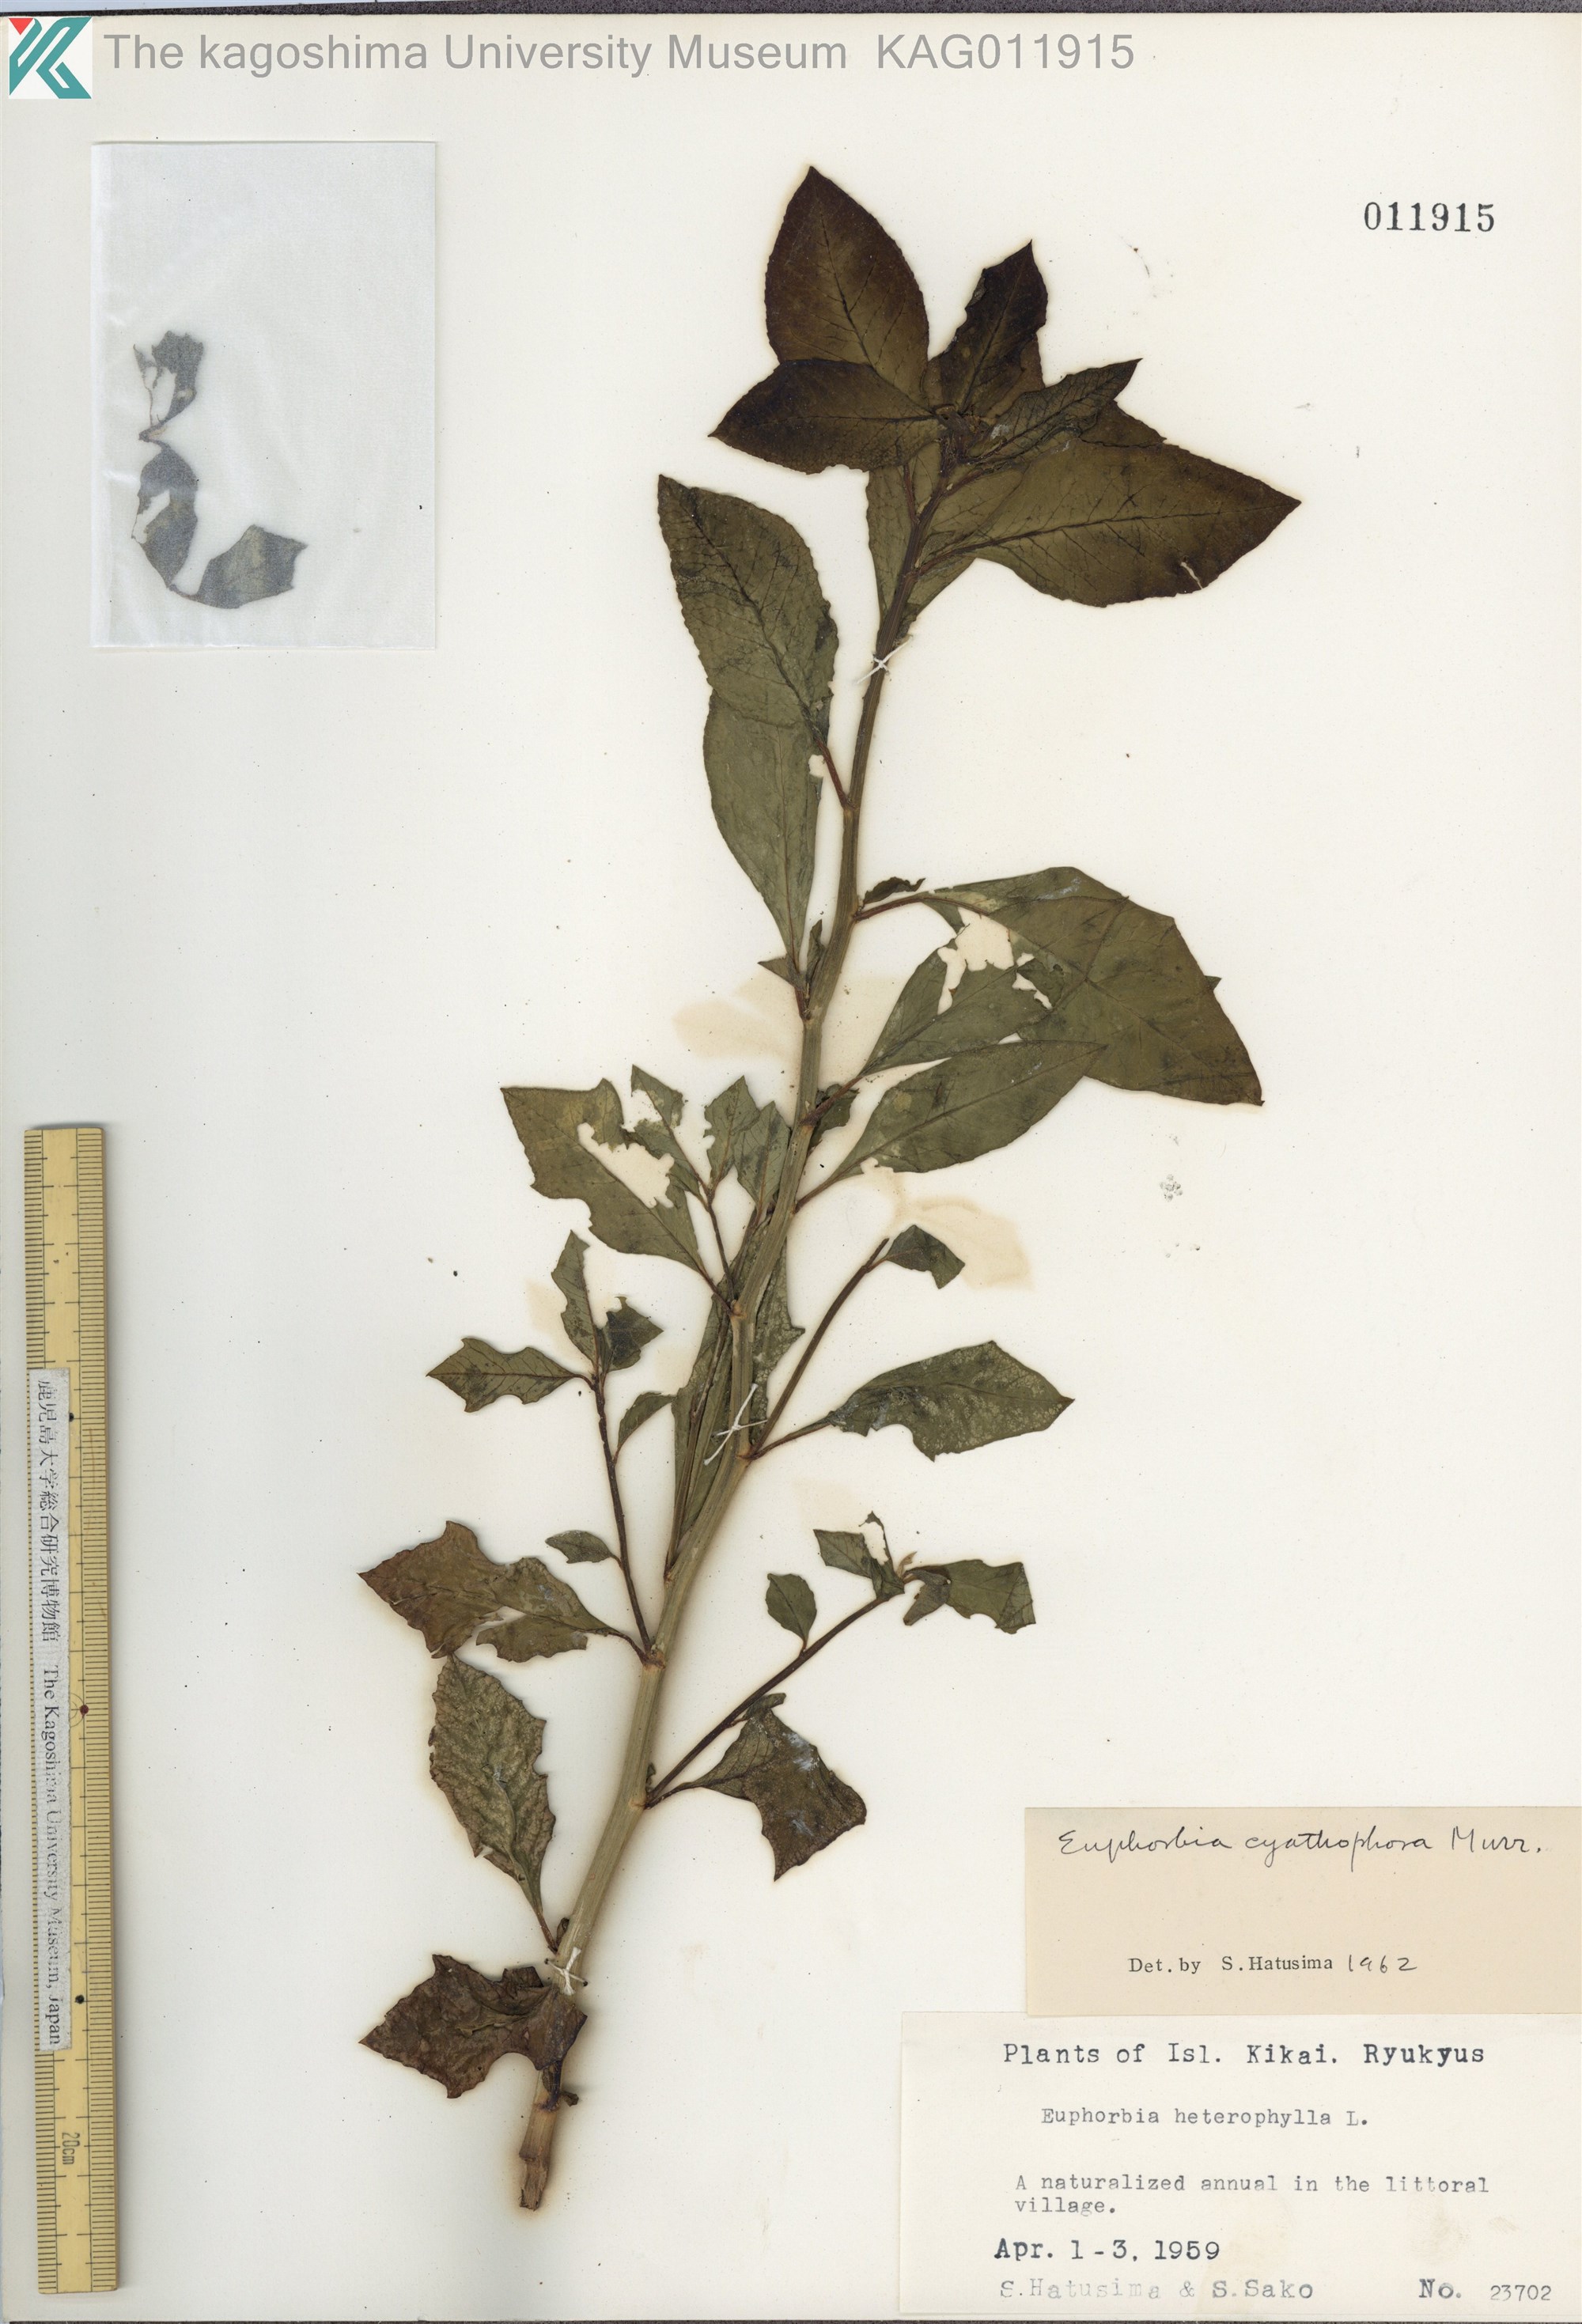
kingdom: Plantae
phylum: Tracheophyta
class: Magnoliopsida
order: Malpighiales
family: Euphorbiaceae
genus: Euphorbia
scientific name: Euphorbia heterophylla
